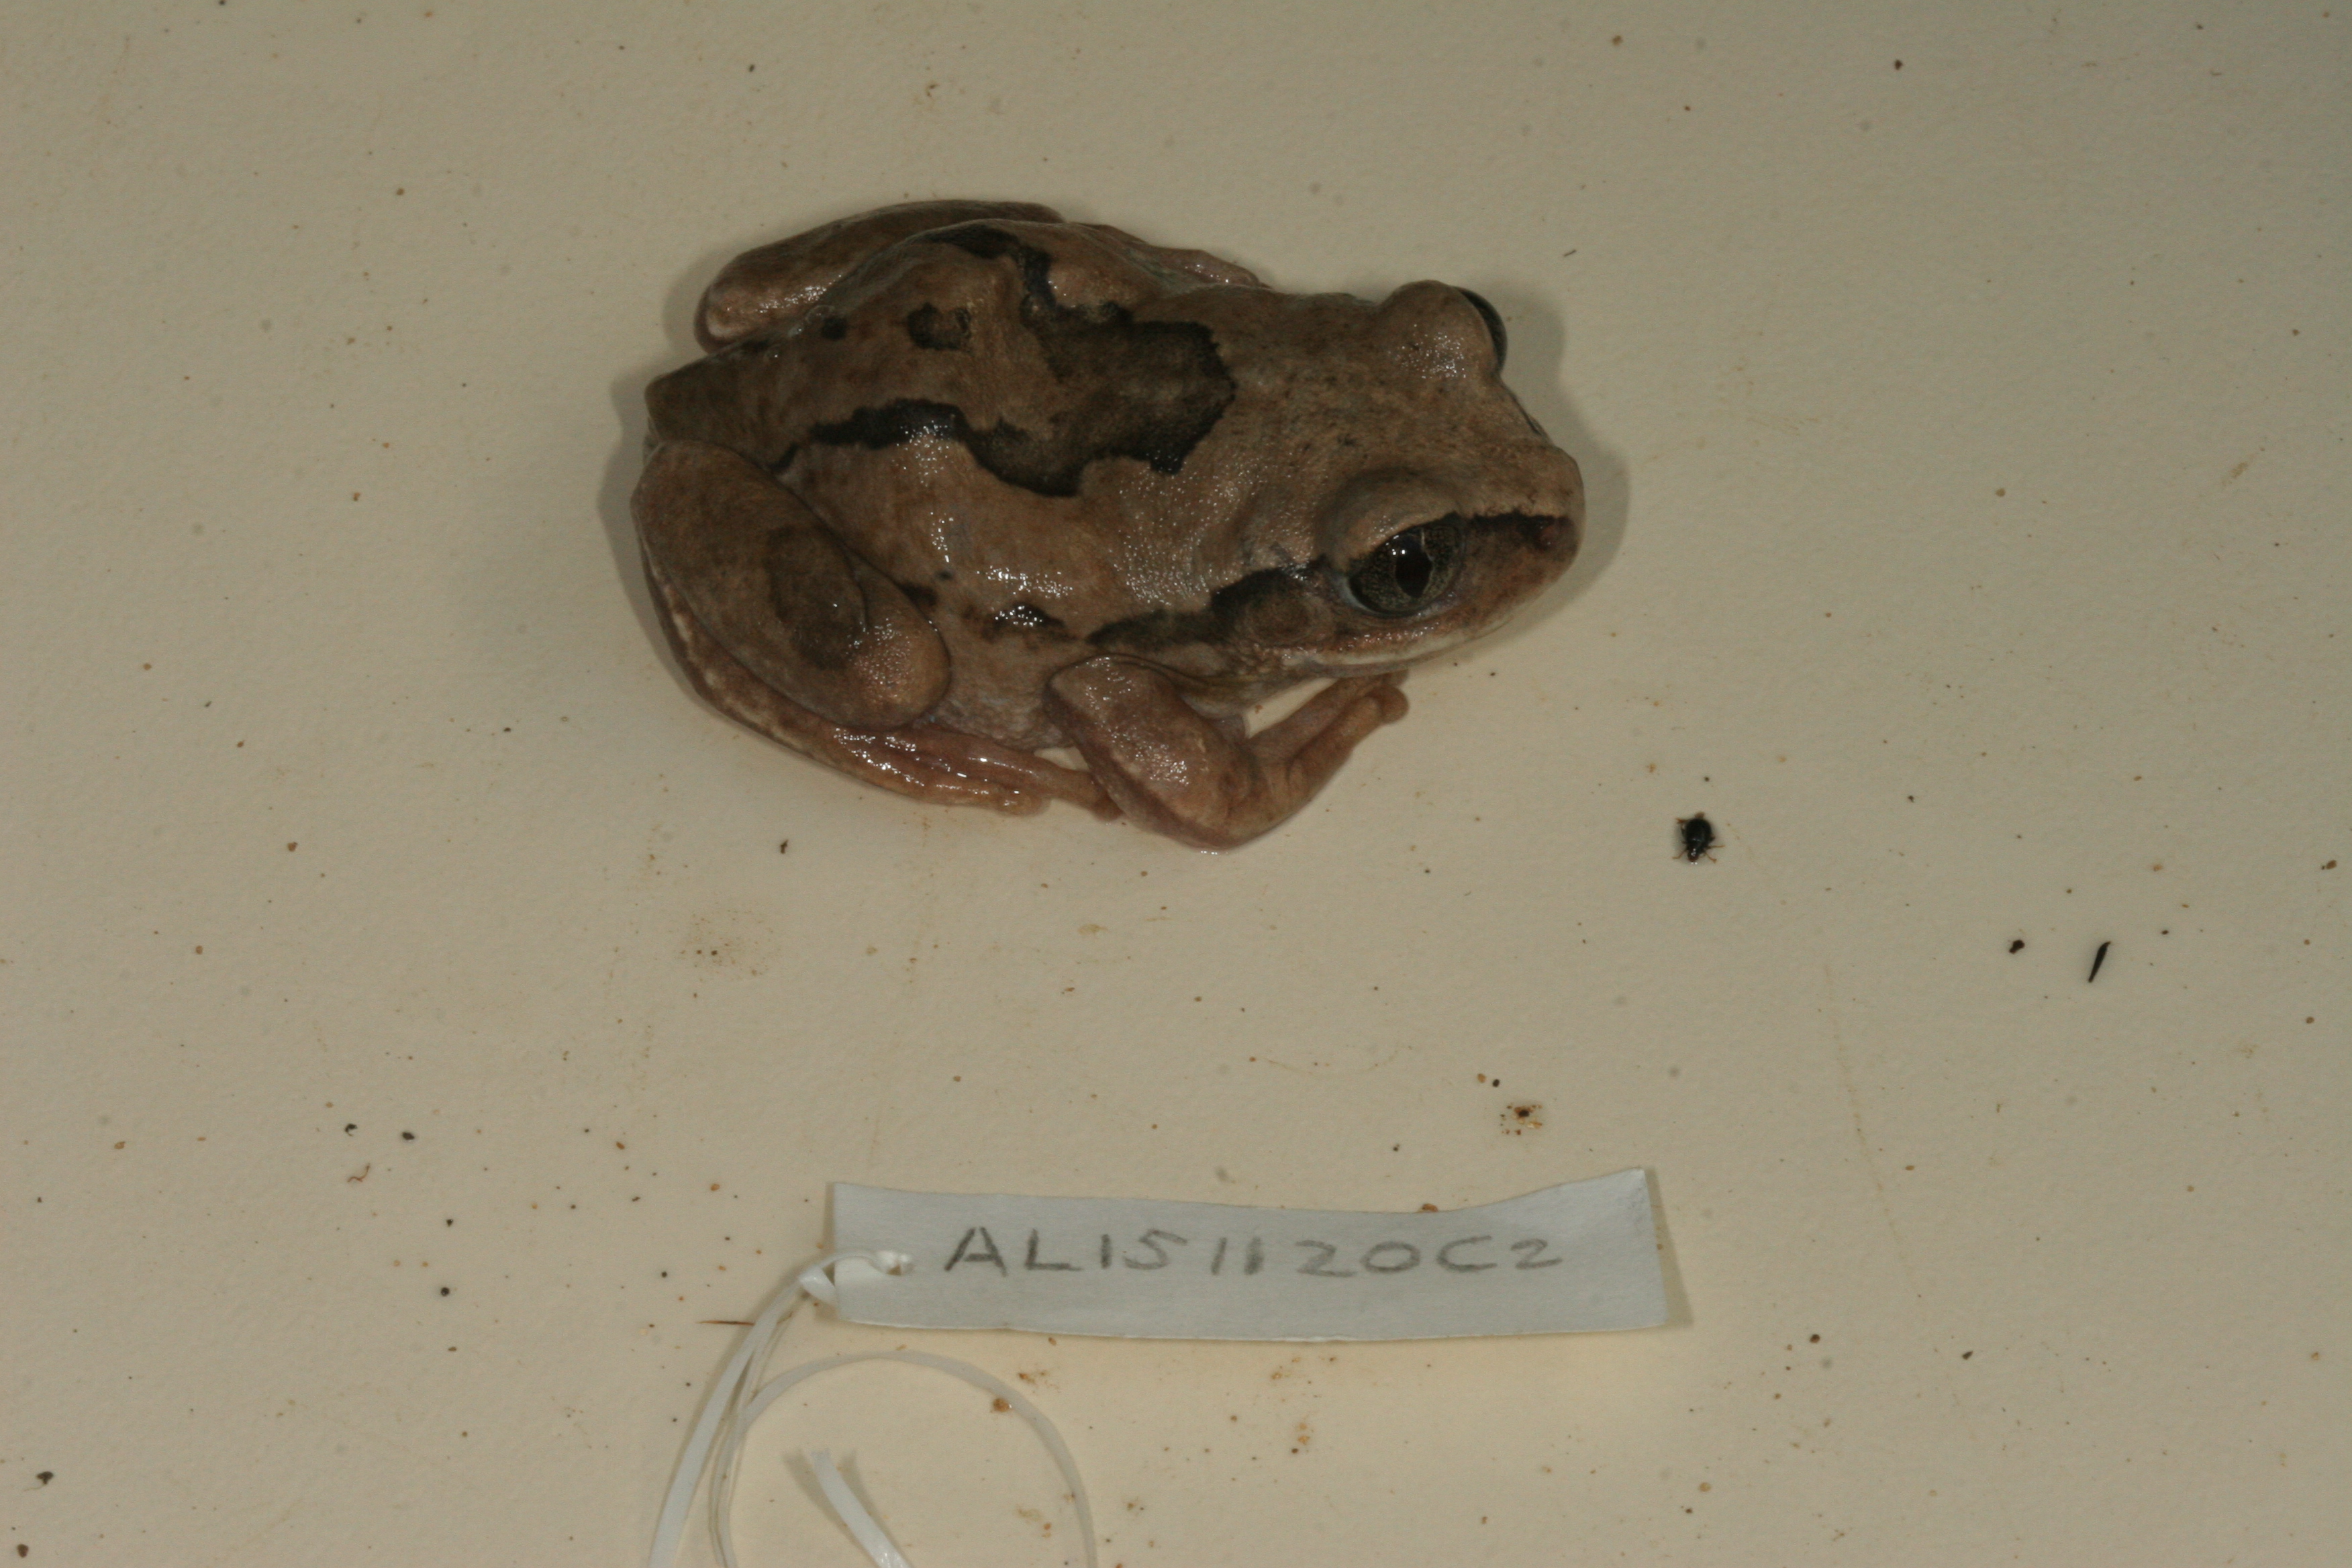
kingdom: Animalia
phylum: Chordata
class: Amphibia
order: Anura
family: Arthroleptidae
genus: Leptopelis
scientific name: Leptopelis mossambicus
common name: Mozambique tree frog
